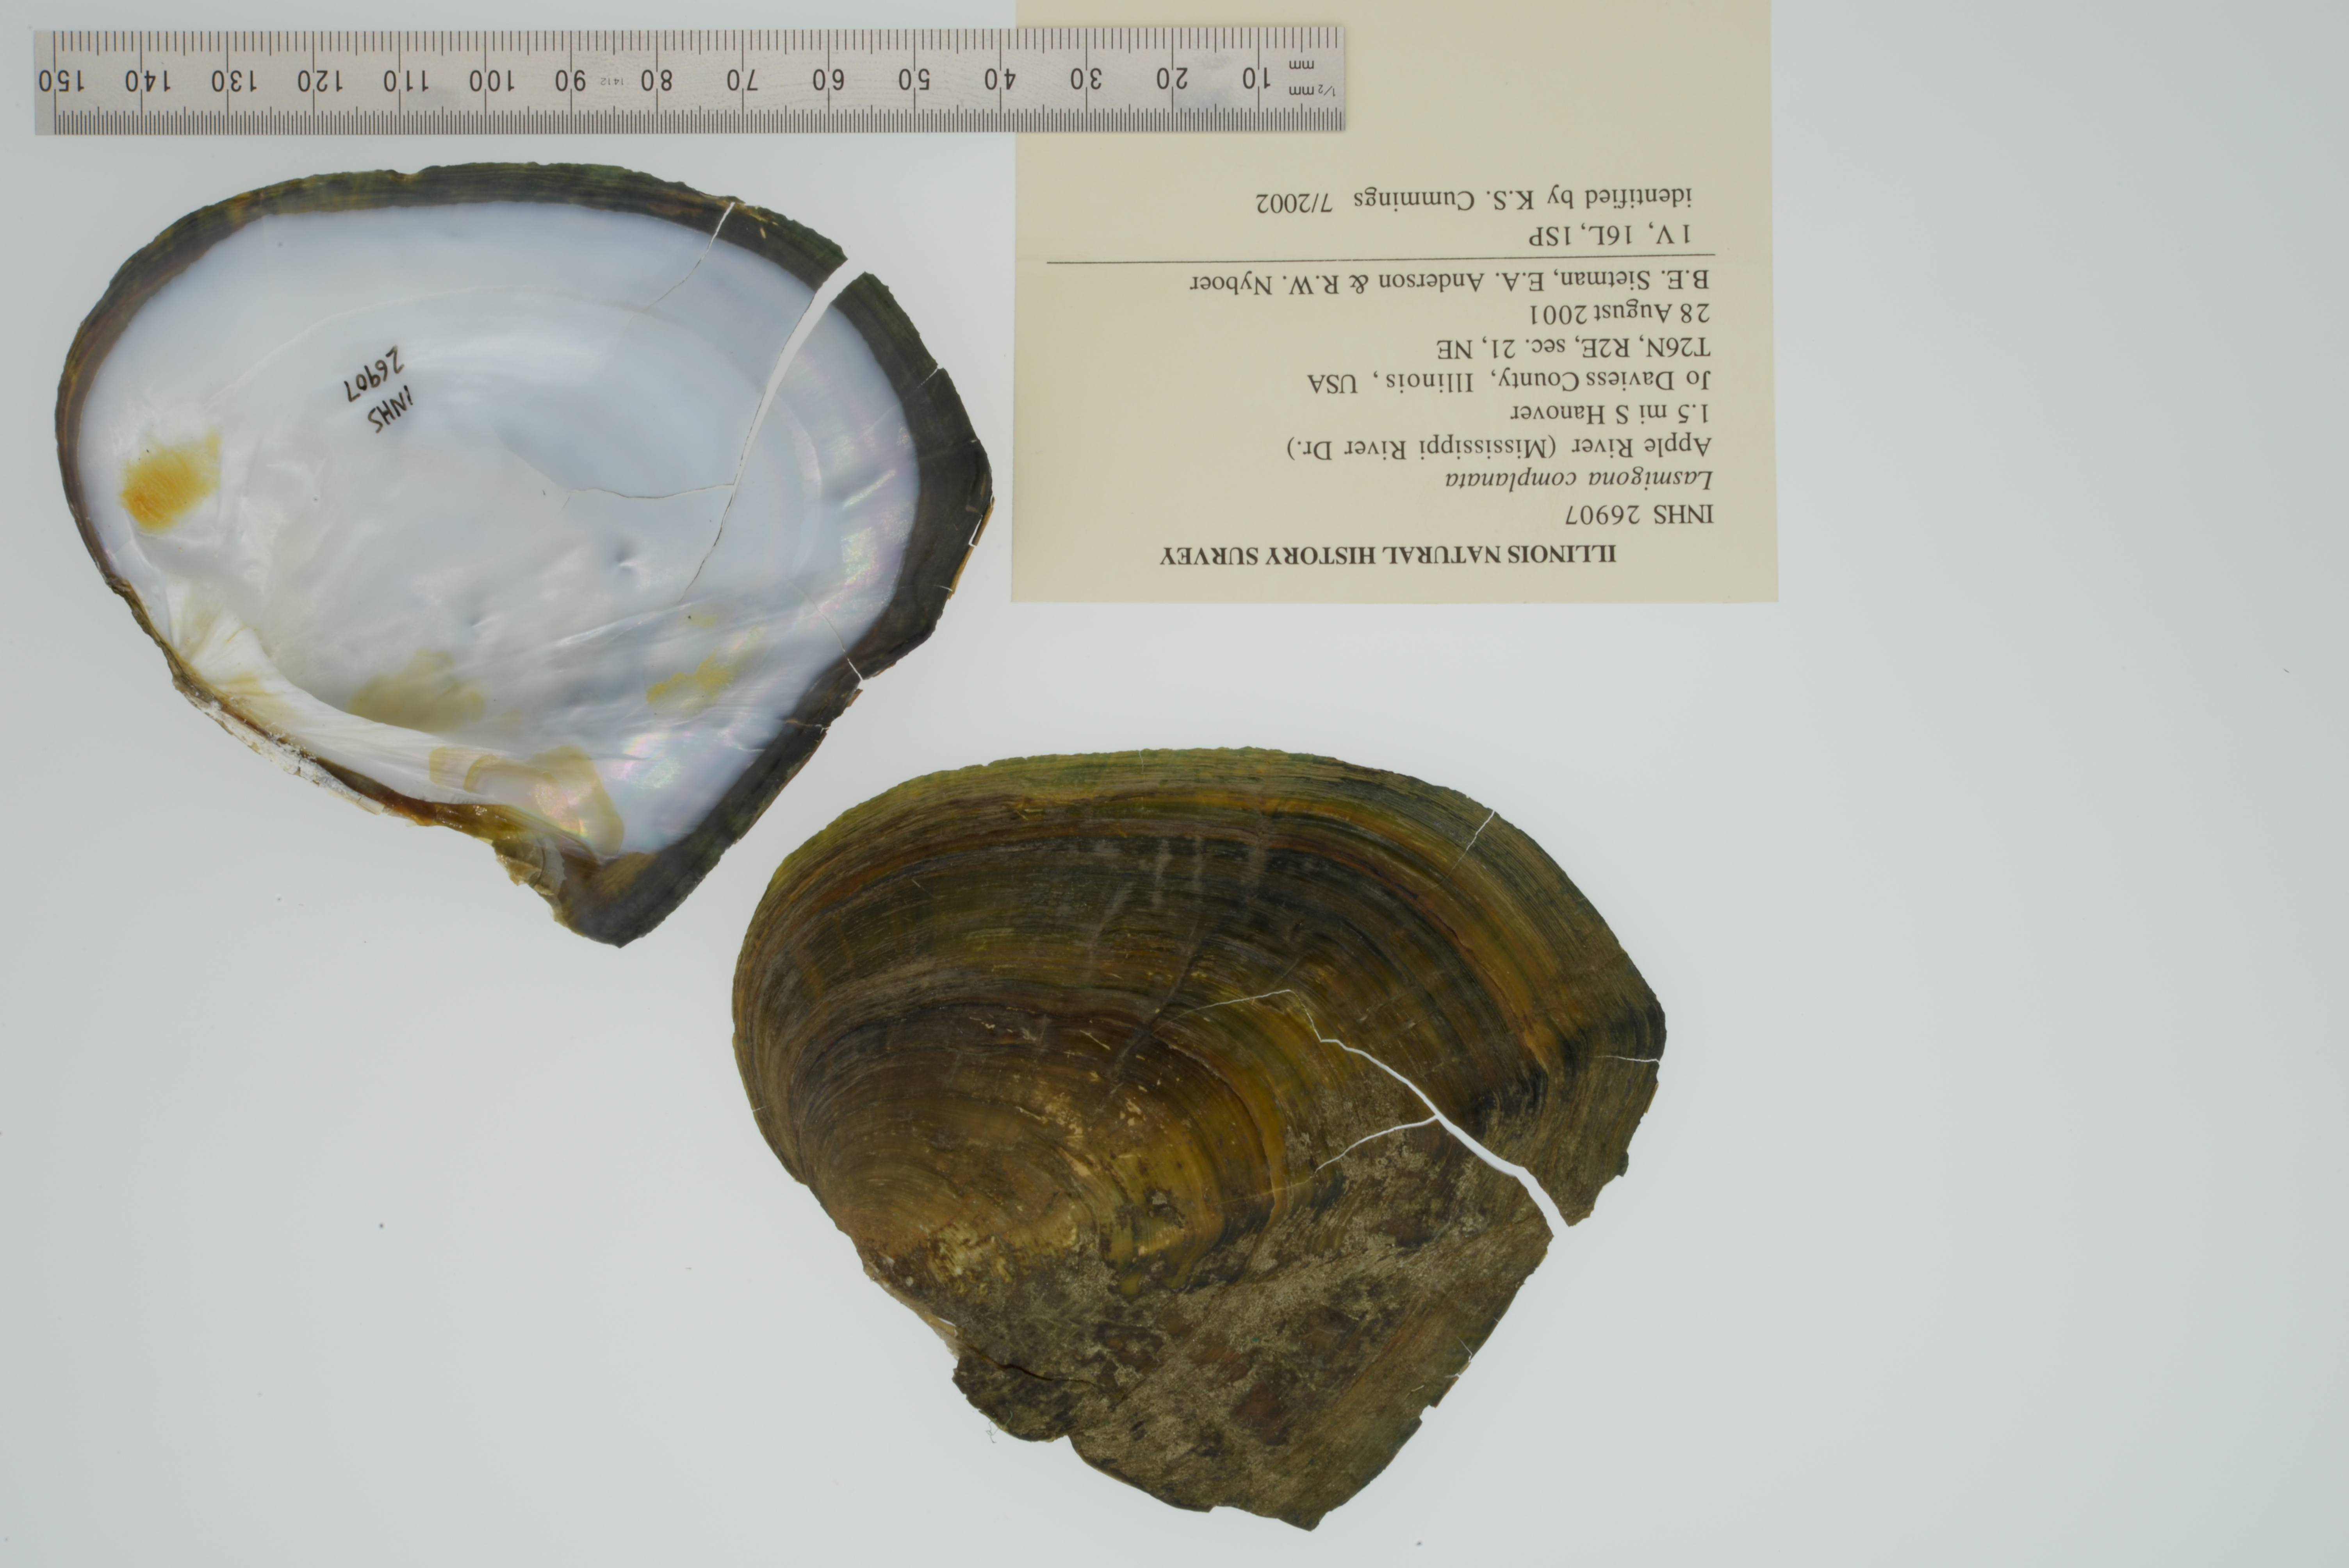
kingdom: Animalia
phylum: Mollusca
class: Bivalvia
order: Unionida
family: Unionidae
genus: Lasmigona
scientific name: Lasmigona complanata
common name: White heelsplitter
